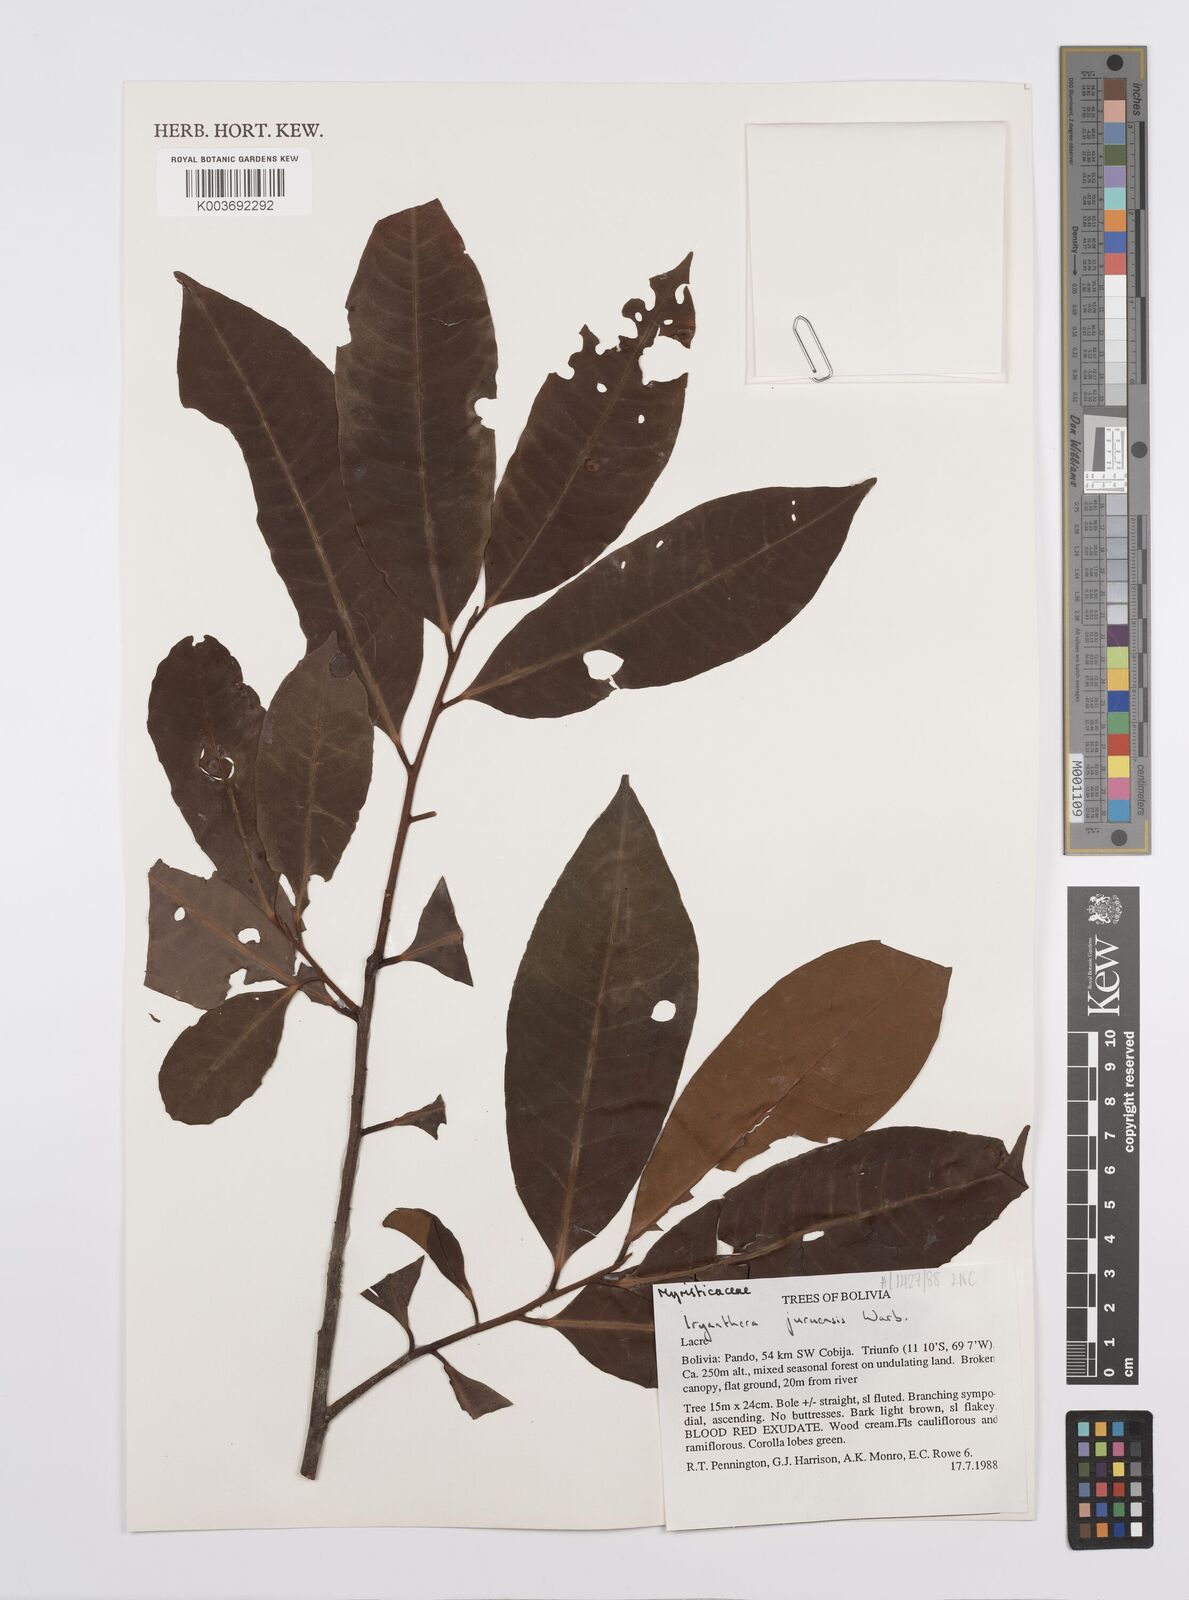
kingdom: Plantae
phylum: Tracheophyta
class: Magnoliopsida
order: Magnoliales
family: Myristicaceae
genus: Iryanthera
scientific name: Iryanthera juruensis
